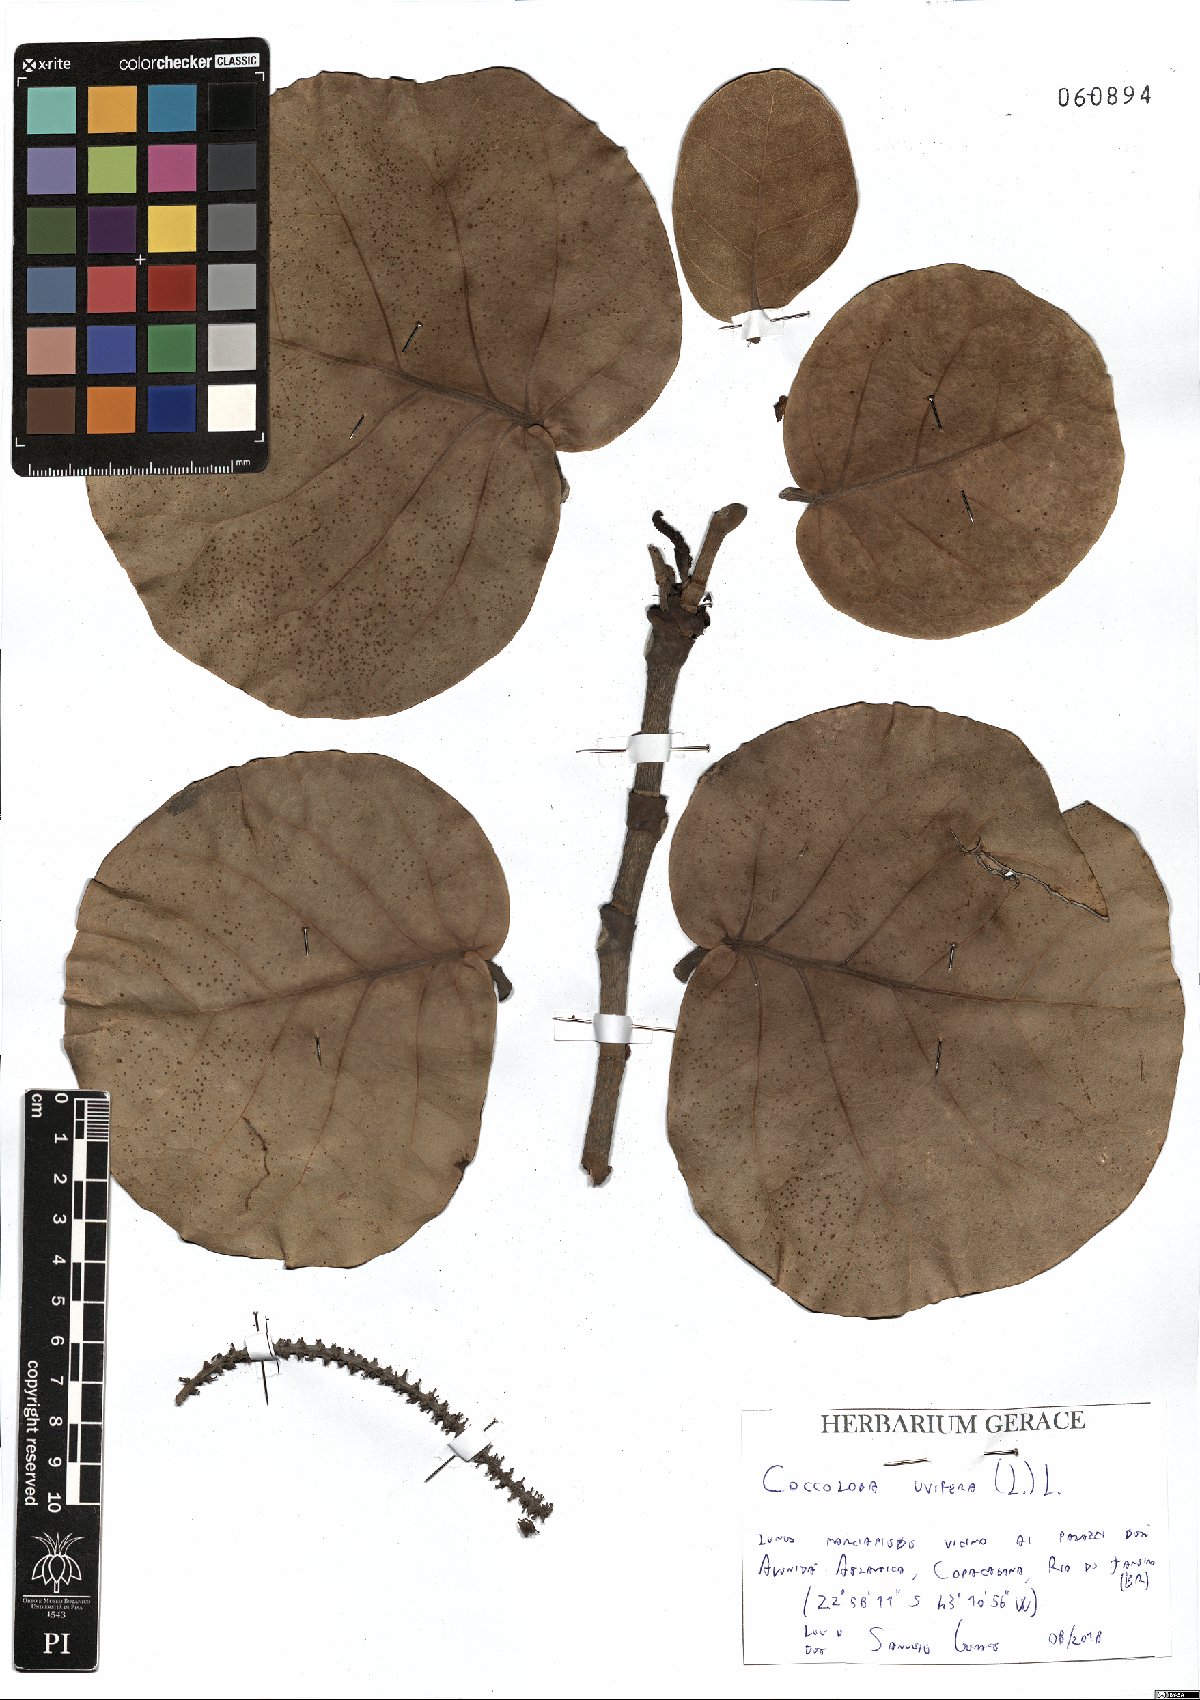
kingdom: Plantae
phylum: Tracheophyta
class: Magnoliopsida
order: Caryophyllales
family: Polygonaceae
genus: Coccoloba
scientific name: Coccoloba uvifera
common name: Seagrape
